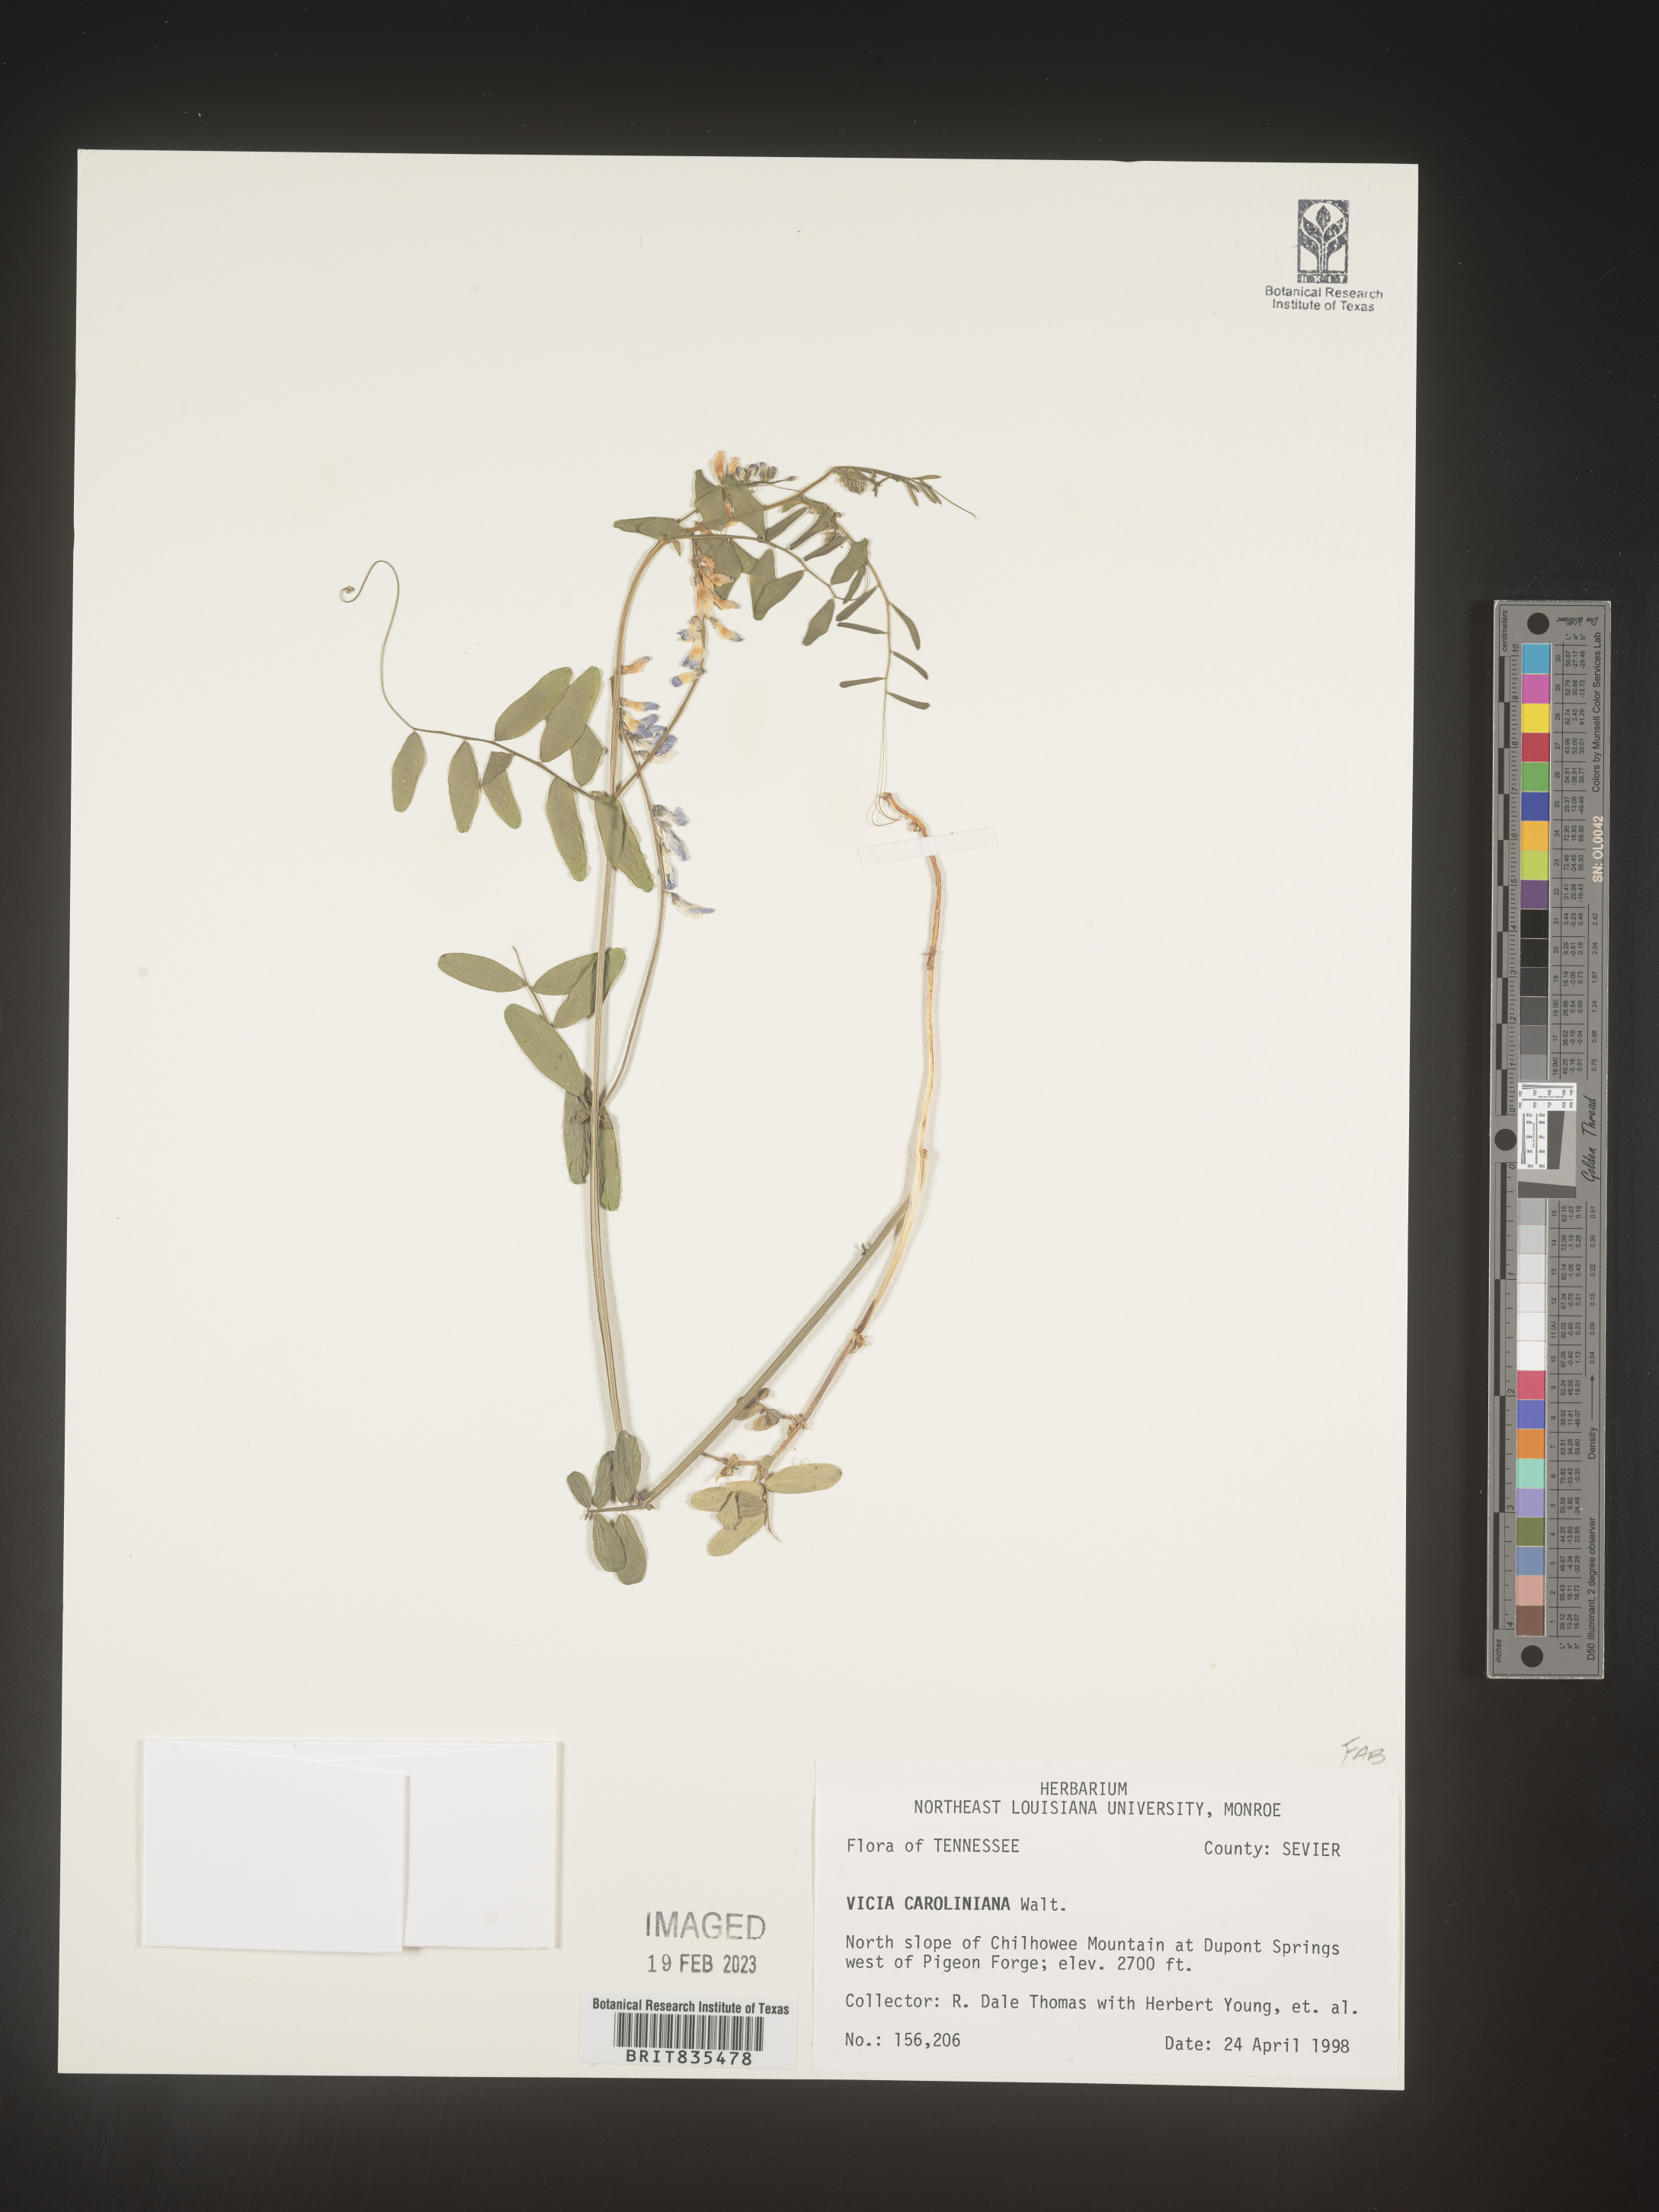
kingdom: Plantae
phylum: Tracheophyta
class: Magnoliopsida
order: Fabales
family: Fabaceae
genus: Vicia
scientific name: Vicia americana
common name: American vetch
